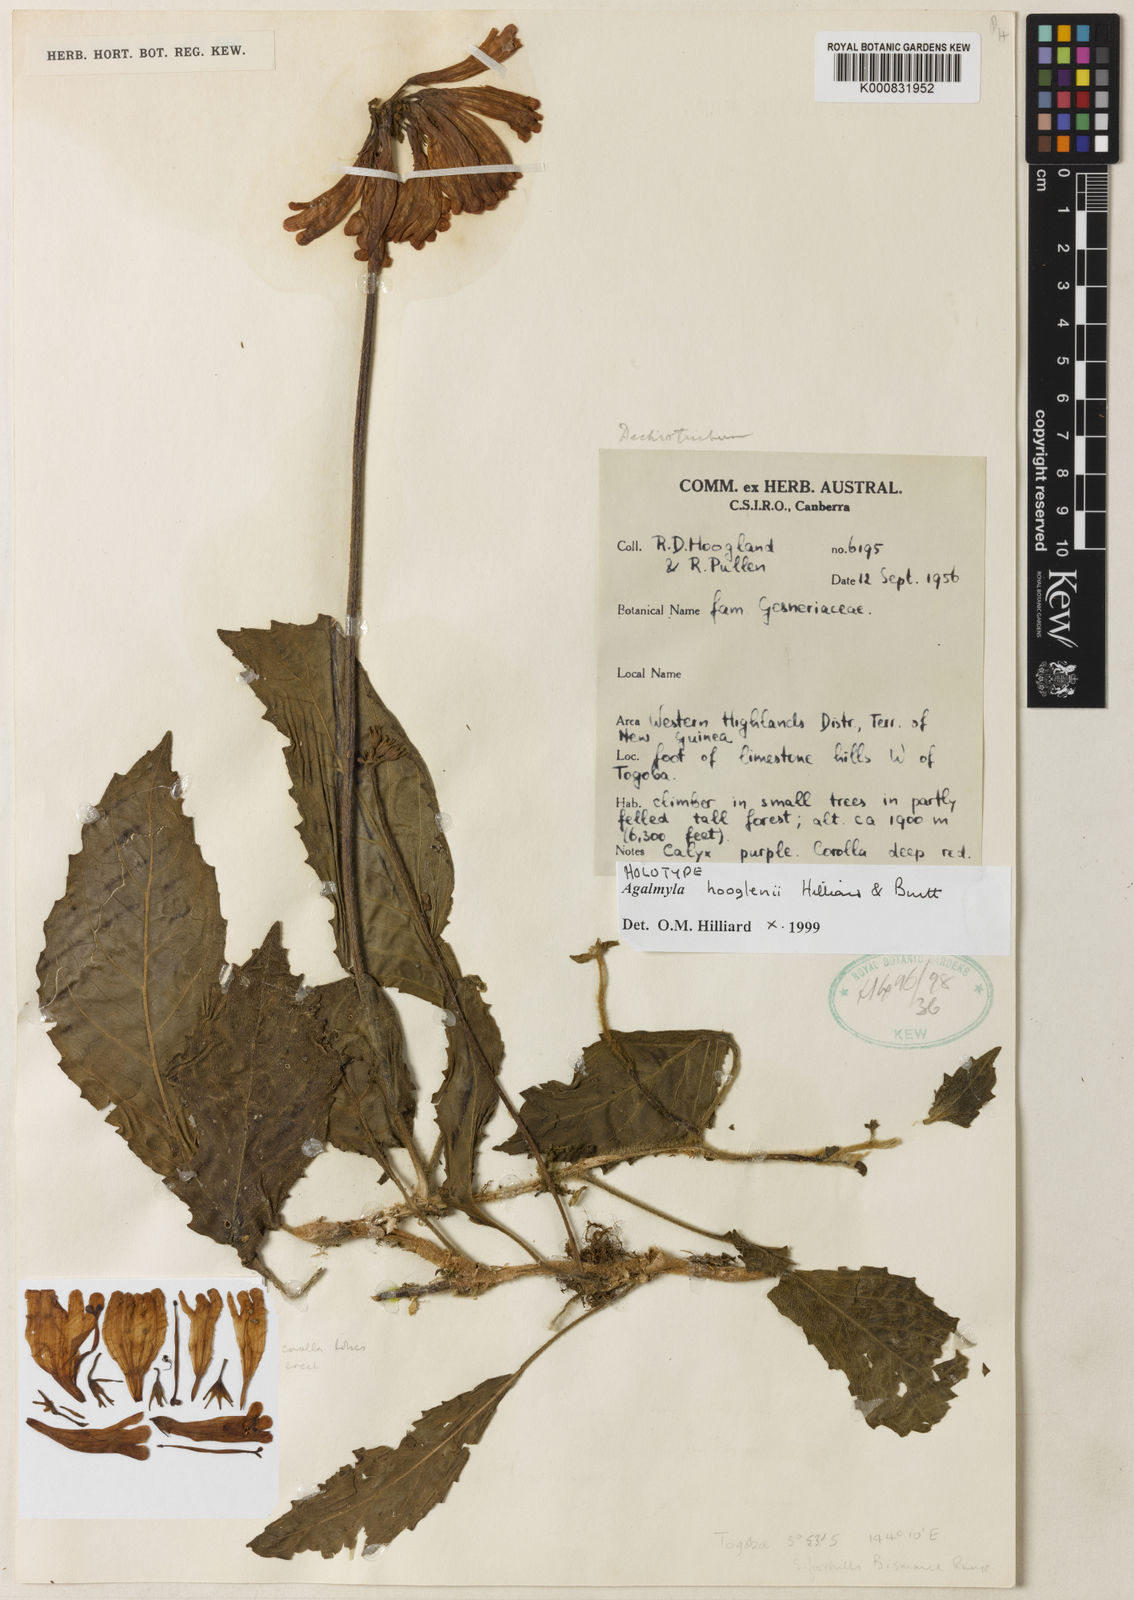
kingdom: Plantae
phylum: Tracheophyta
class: Magnoliopsida
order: Lamiales
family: Gesneriaceae
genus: Agalmyla
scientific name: Agalmyla hooglenii
